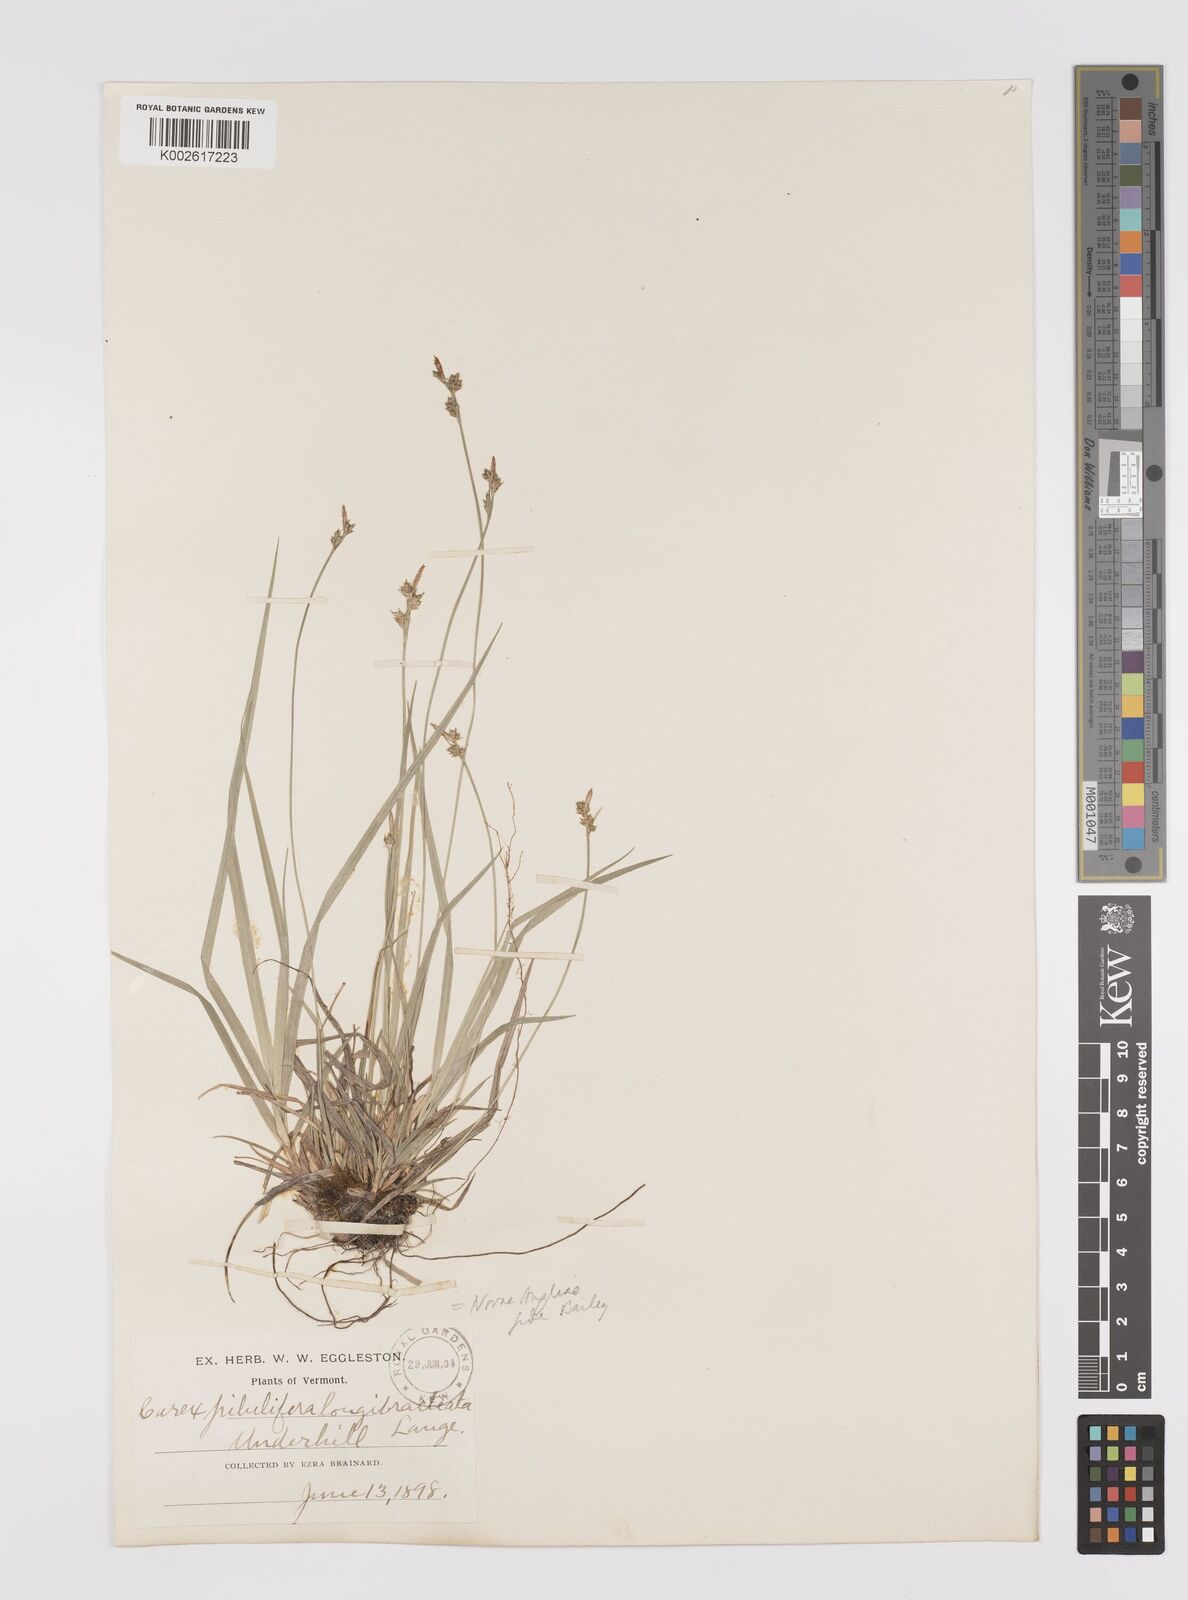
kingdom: Plantae
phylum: Tracheophyta
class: Liliopsida
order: Poales
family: Cyperaceae
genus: Carex
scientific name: Carex albicans
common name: Bellow-beaked sedge
